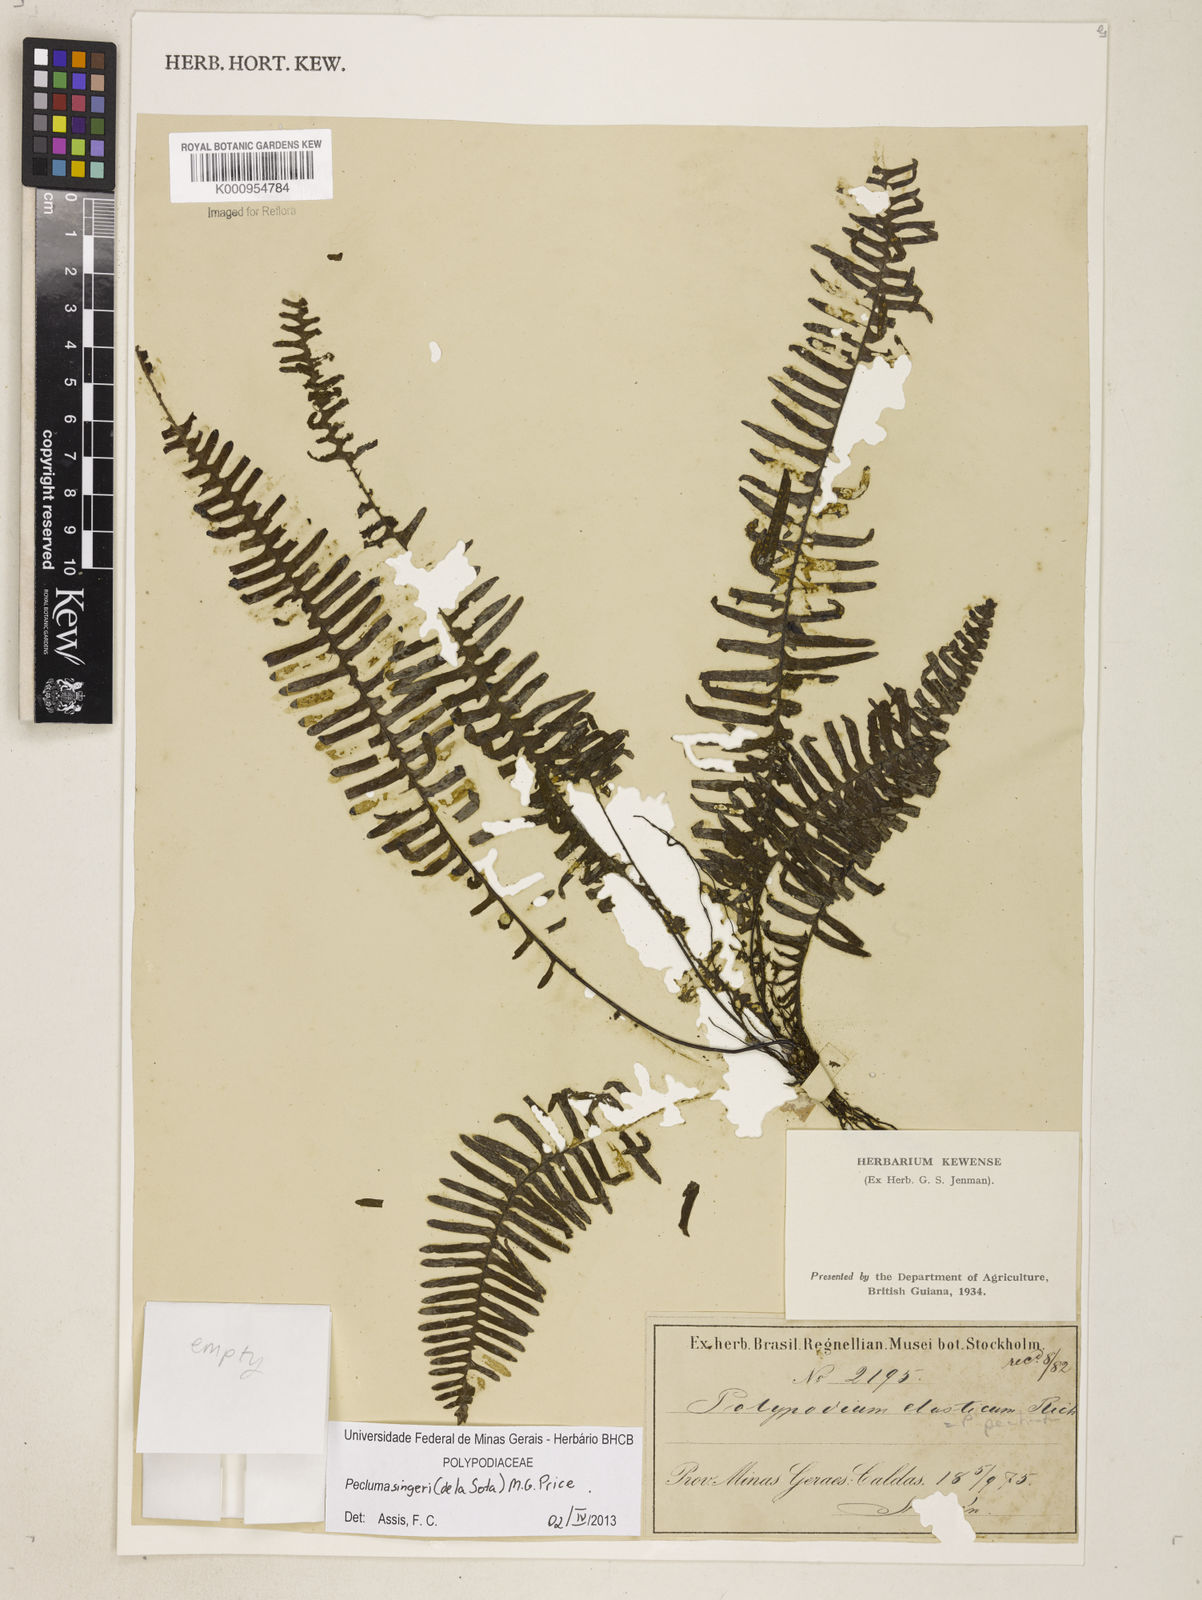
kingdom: Plantae
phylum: Tracheophyta
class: Polypodiopsida
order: Polypodiales
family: Polypodiaceae
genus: Pecluma
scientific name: Pecluma singeri
